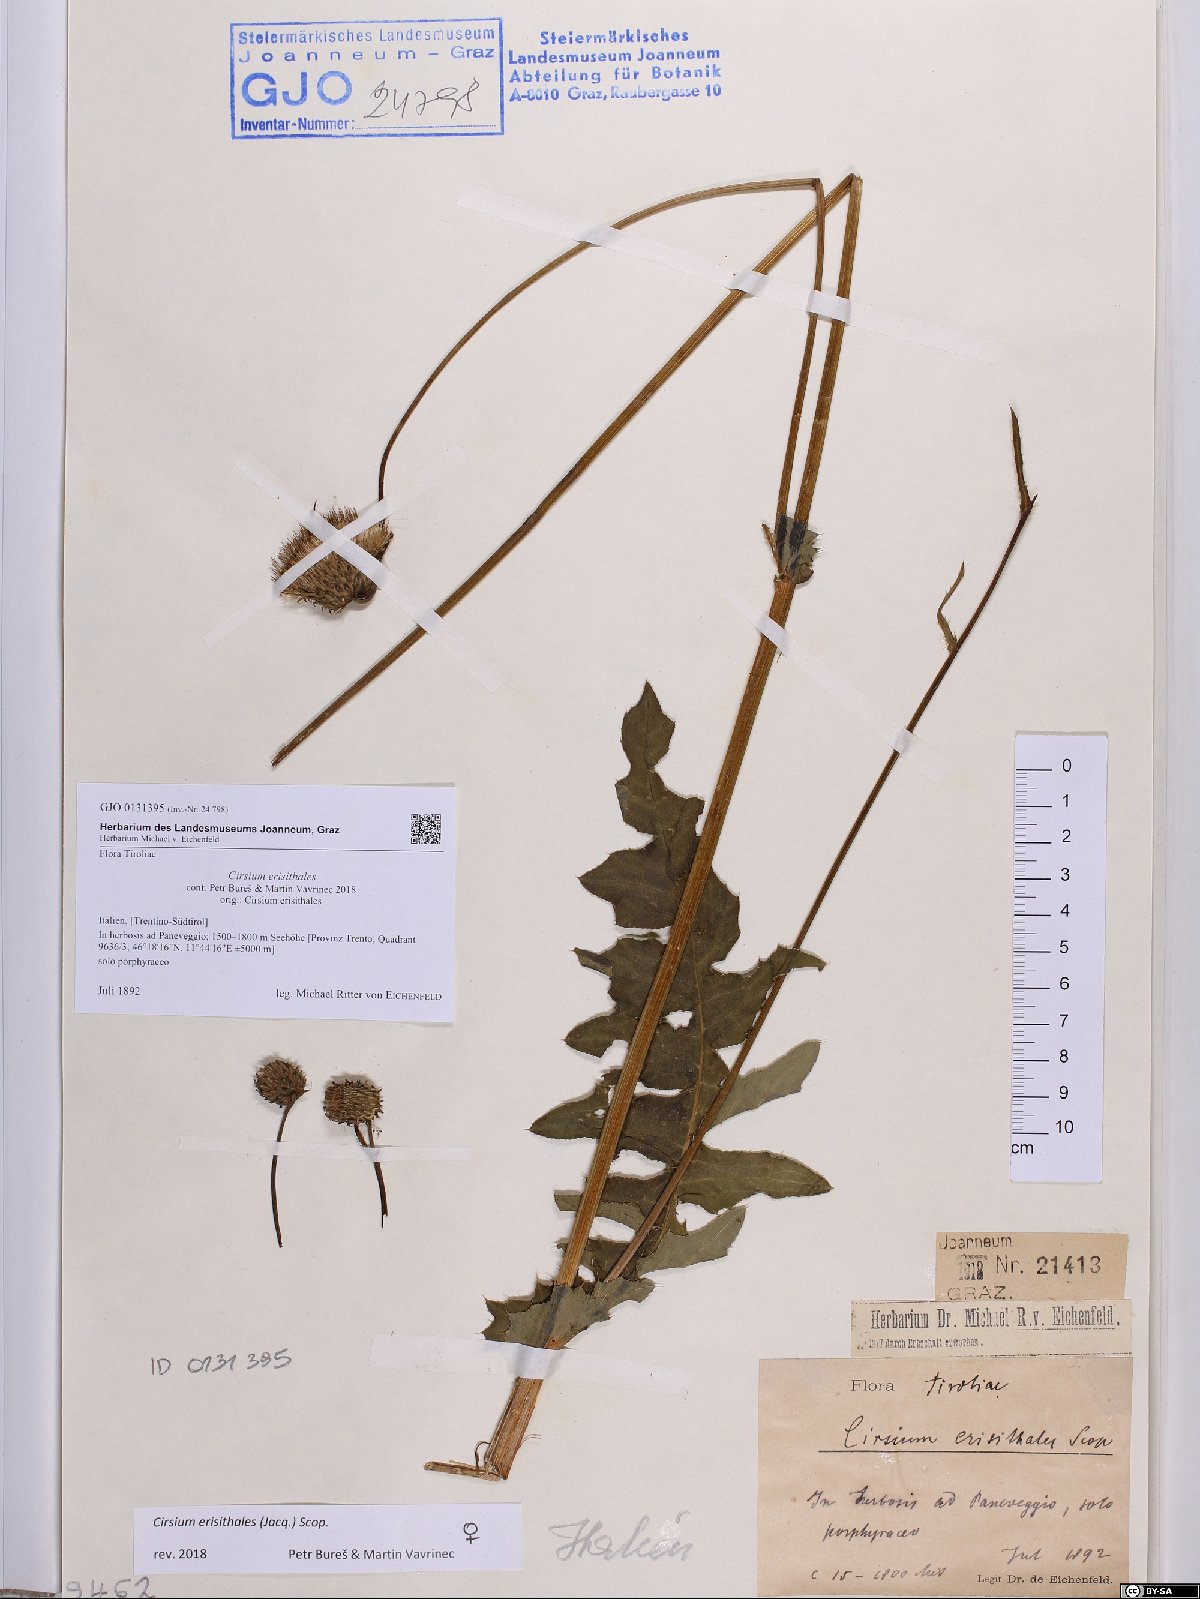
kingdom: Plantae
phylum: Tracheophyta
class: Magnoliopsida
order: Asterales
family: Asteraceae
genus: Cirsium
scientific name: Cirsium erisithales
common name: Yellow thistle
